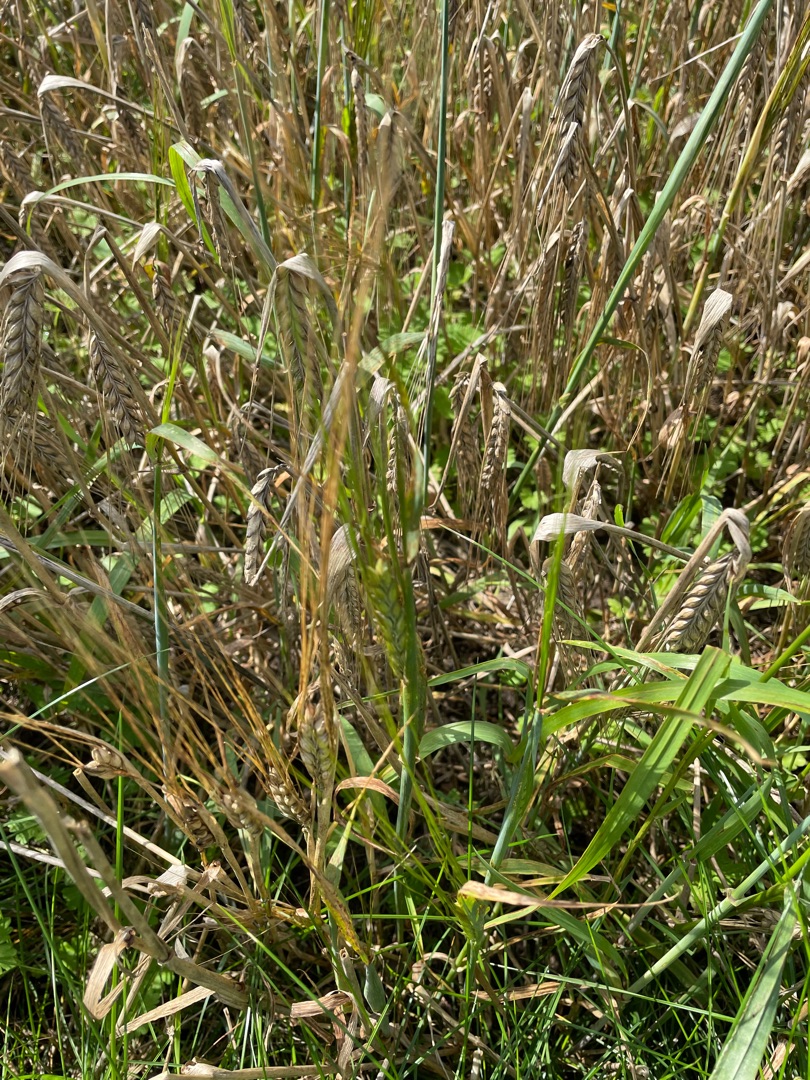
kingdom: Plantae
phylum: Tracheophyta
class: Liliopsida
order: Poales
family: Poaceae
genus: Hordeum
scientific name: Hordeum vulgare
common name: Toradet byg
